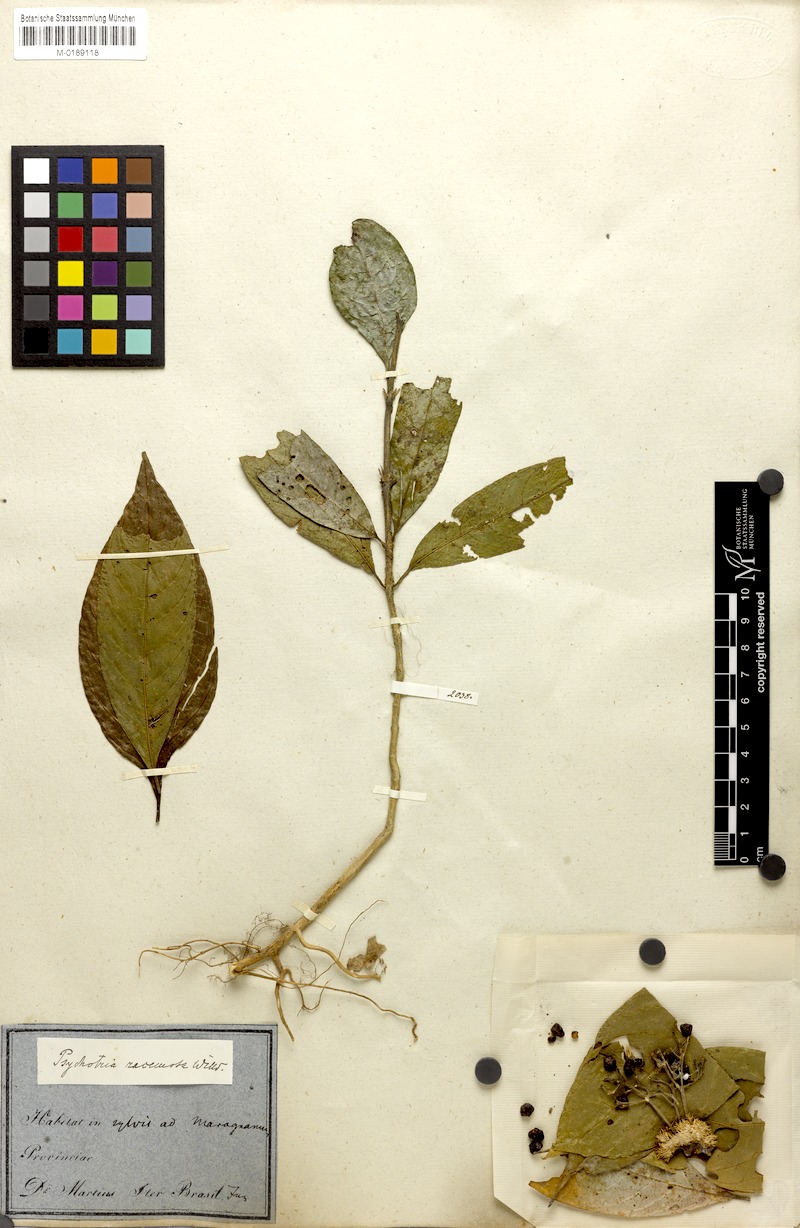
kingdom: Plantae
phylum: Tracheophyta
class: Magnoliopsida
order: Gentianales
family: Rubiaceae
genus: Palicourea
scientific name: Palicourea racemosa
